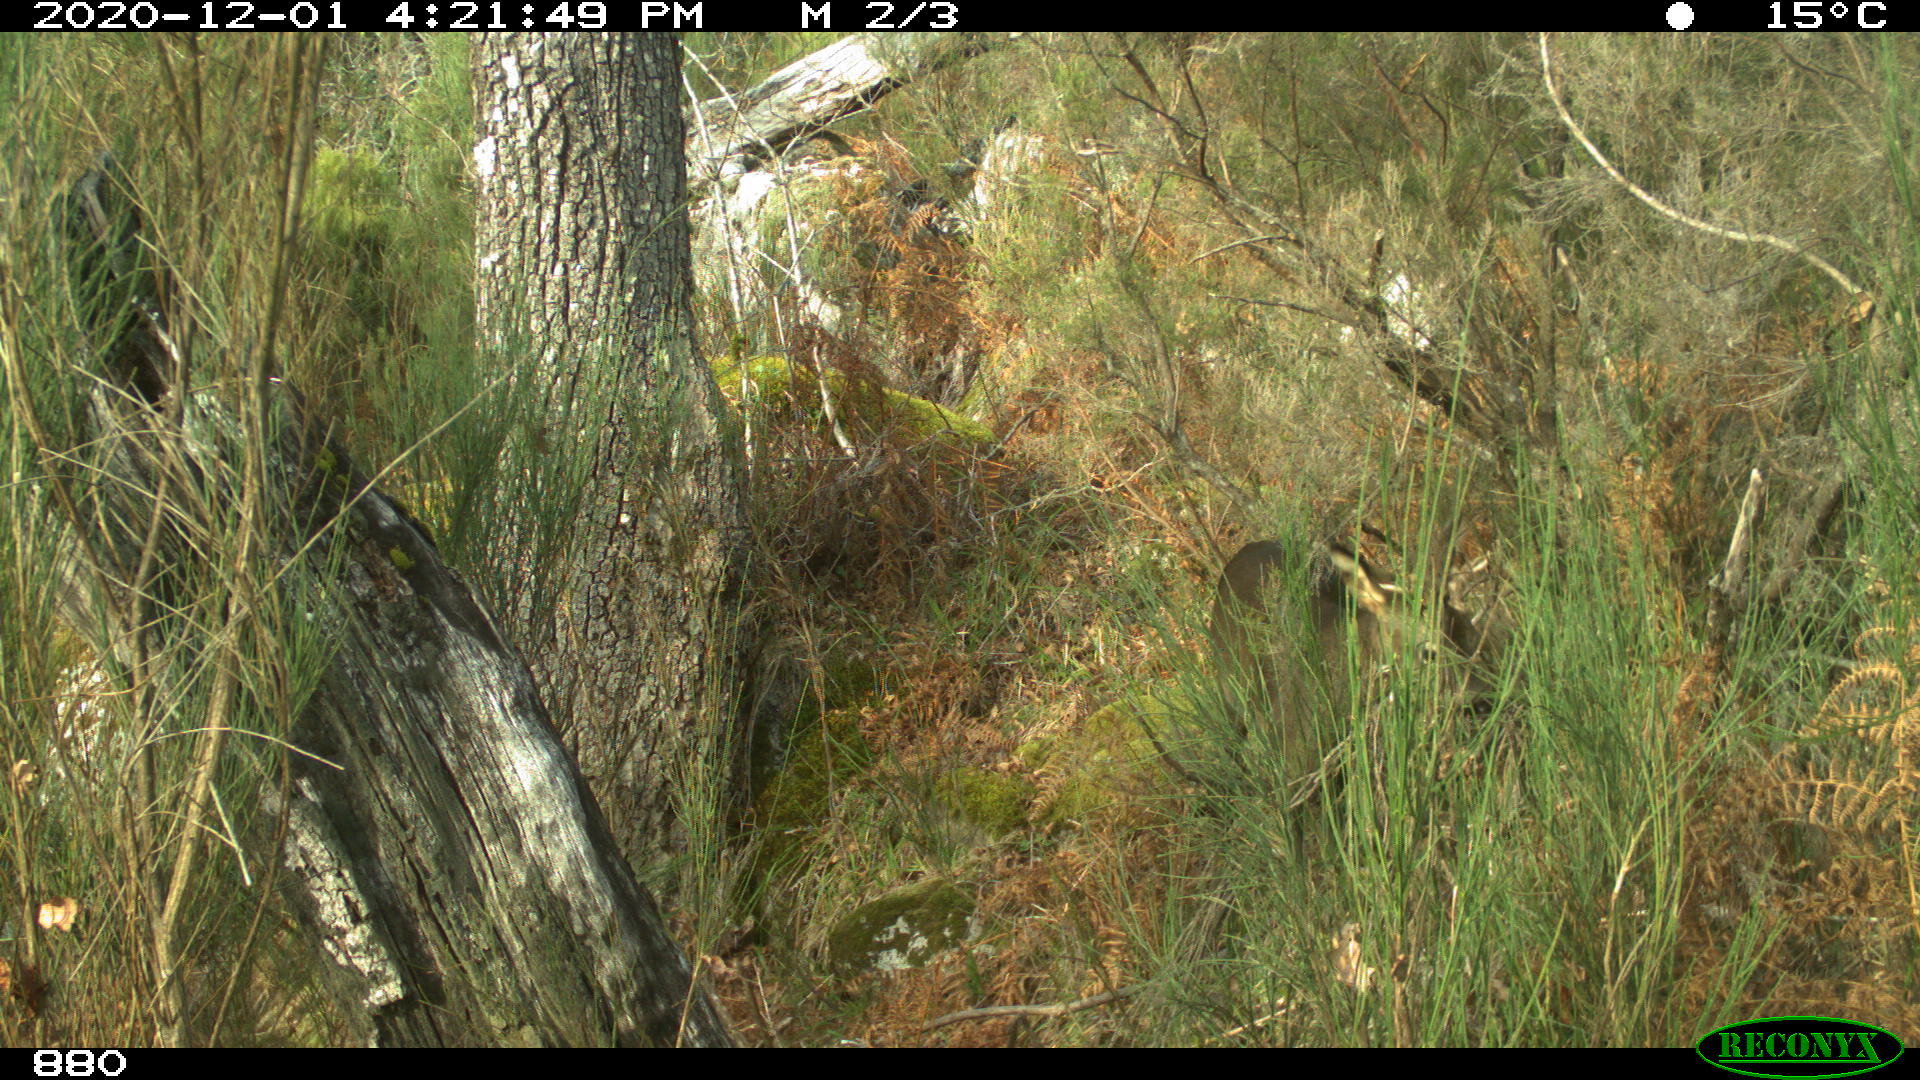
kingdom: Animalia
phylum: Chordata
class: Mammalia
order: Artiodactyla
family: Cervidae
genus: Capreolus
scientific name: Capreolus capreolus
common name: Western roe deer
